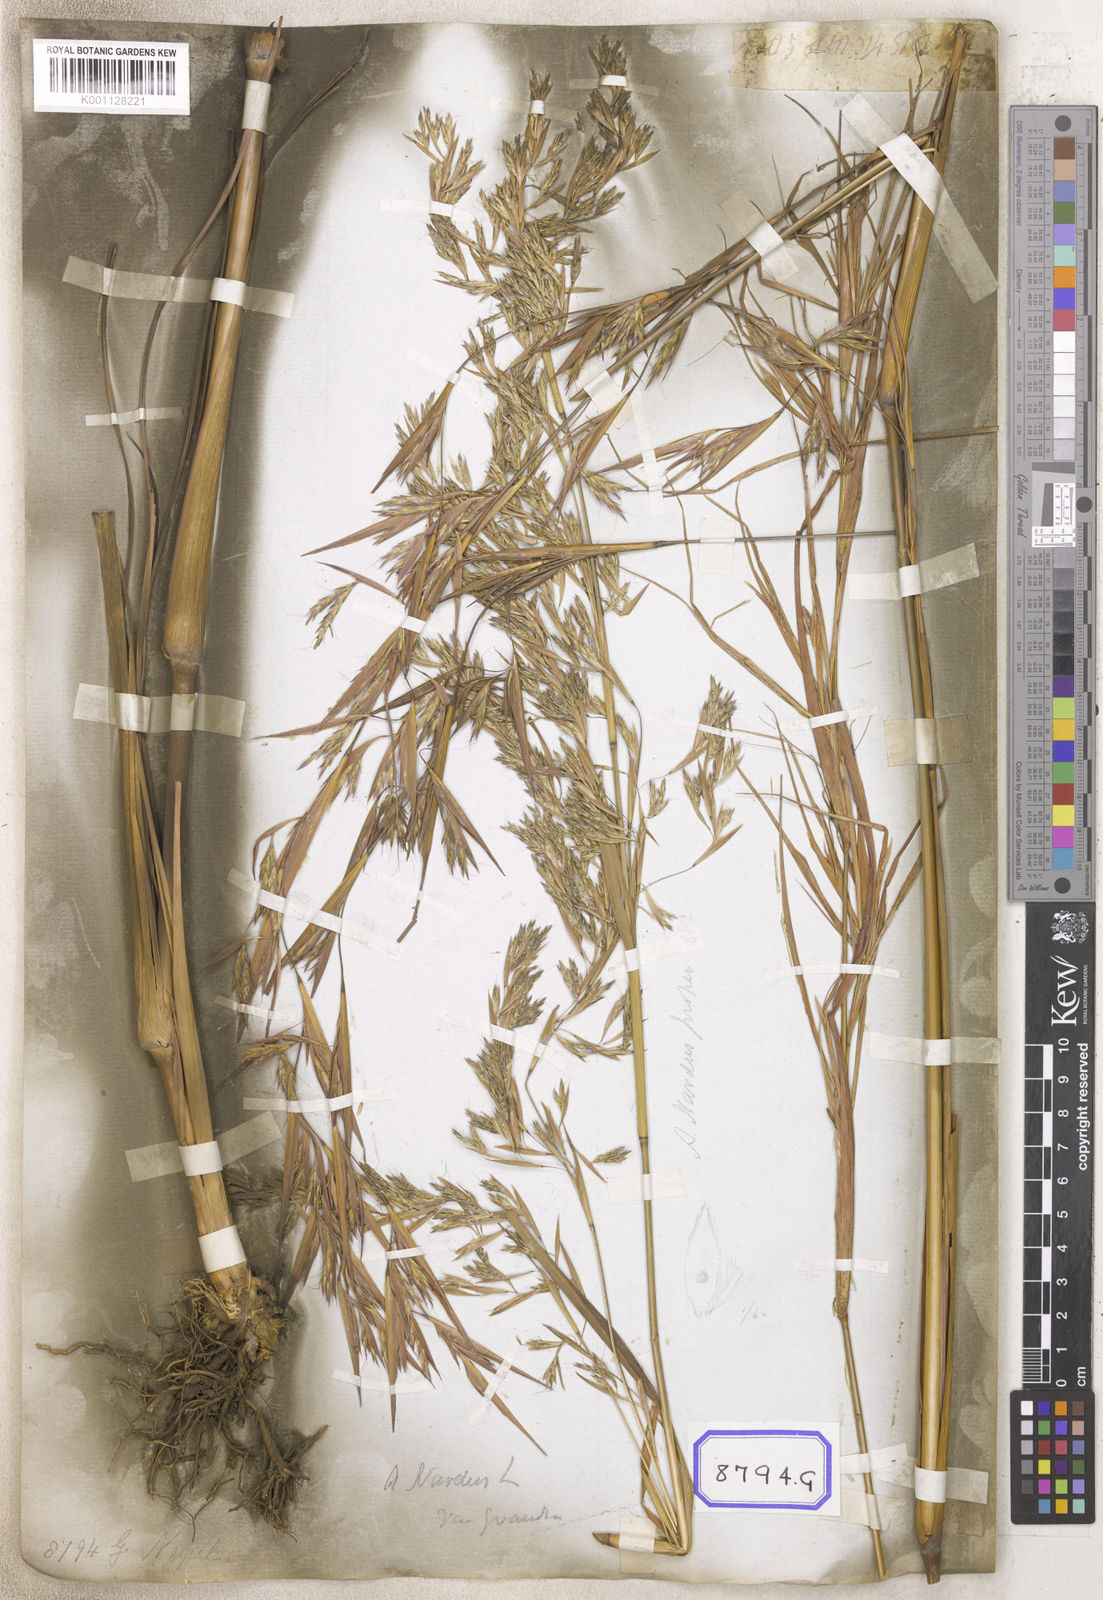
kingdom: Plantae
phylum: Tracheophyta
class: Liliopsida
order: Poales
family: Poaceae
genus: Cymbopogon
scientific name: Cymbopogon schoenanthus
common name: Geranium grass
